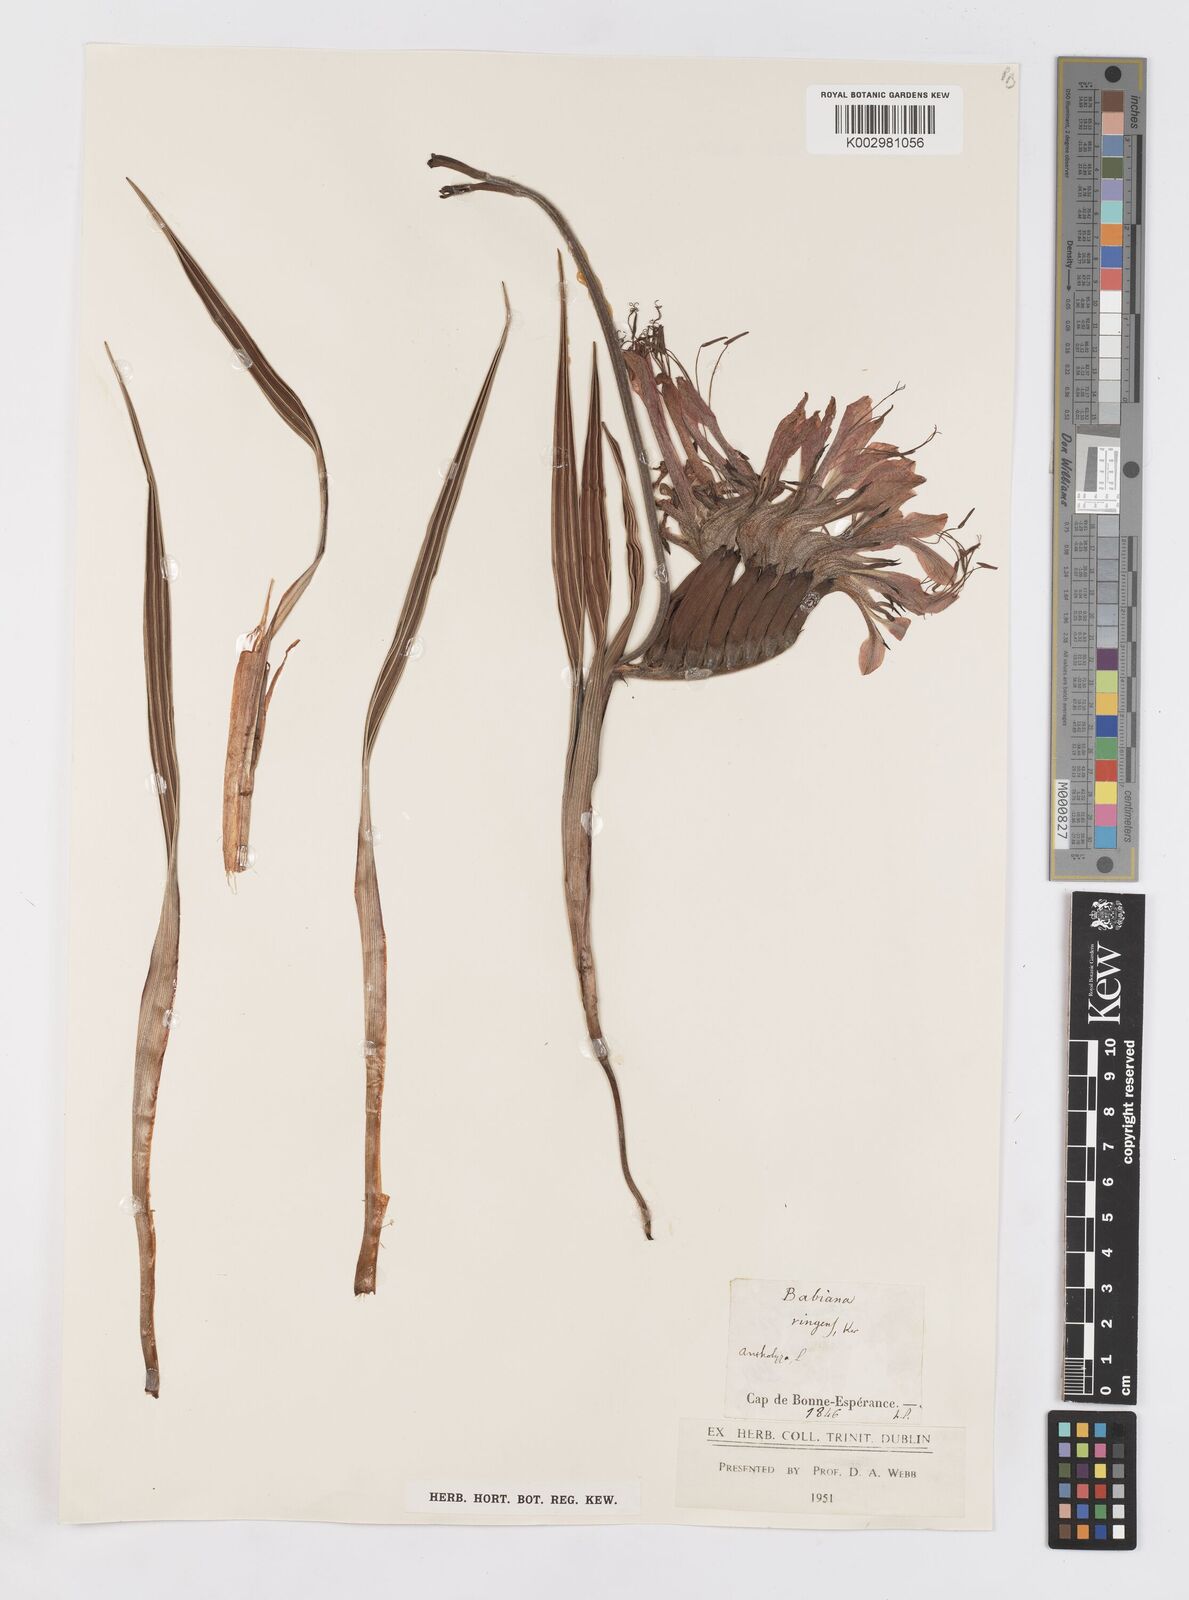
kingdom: Plantae
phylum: Tracheophyta
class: Liliopsida
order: Asparagales
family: Iridaceae
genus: Babiana
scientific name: Babiana ringens
